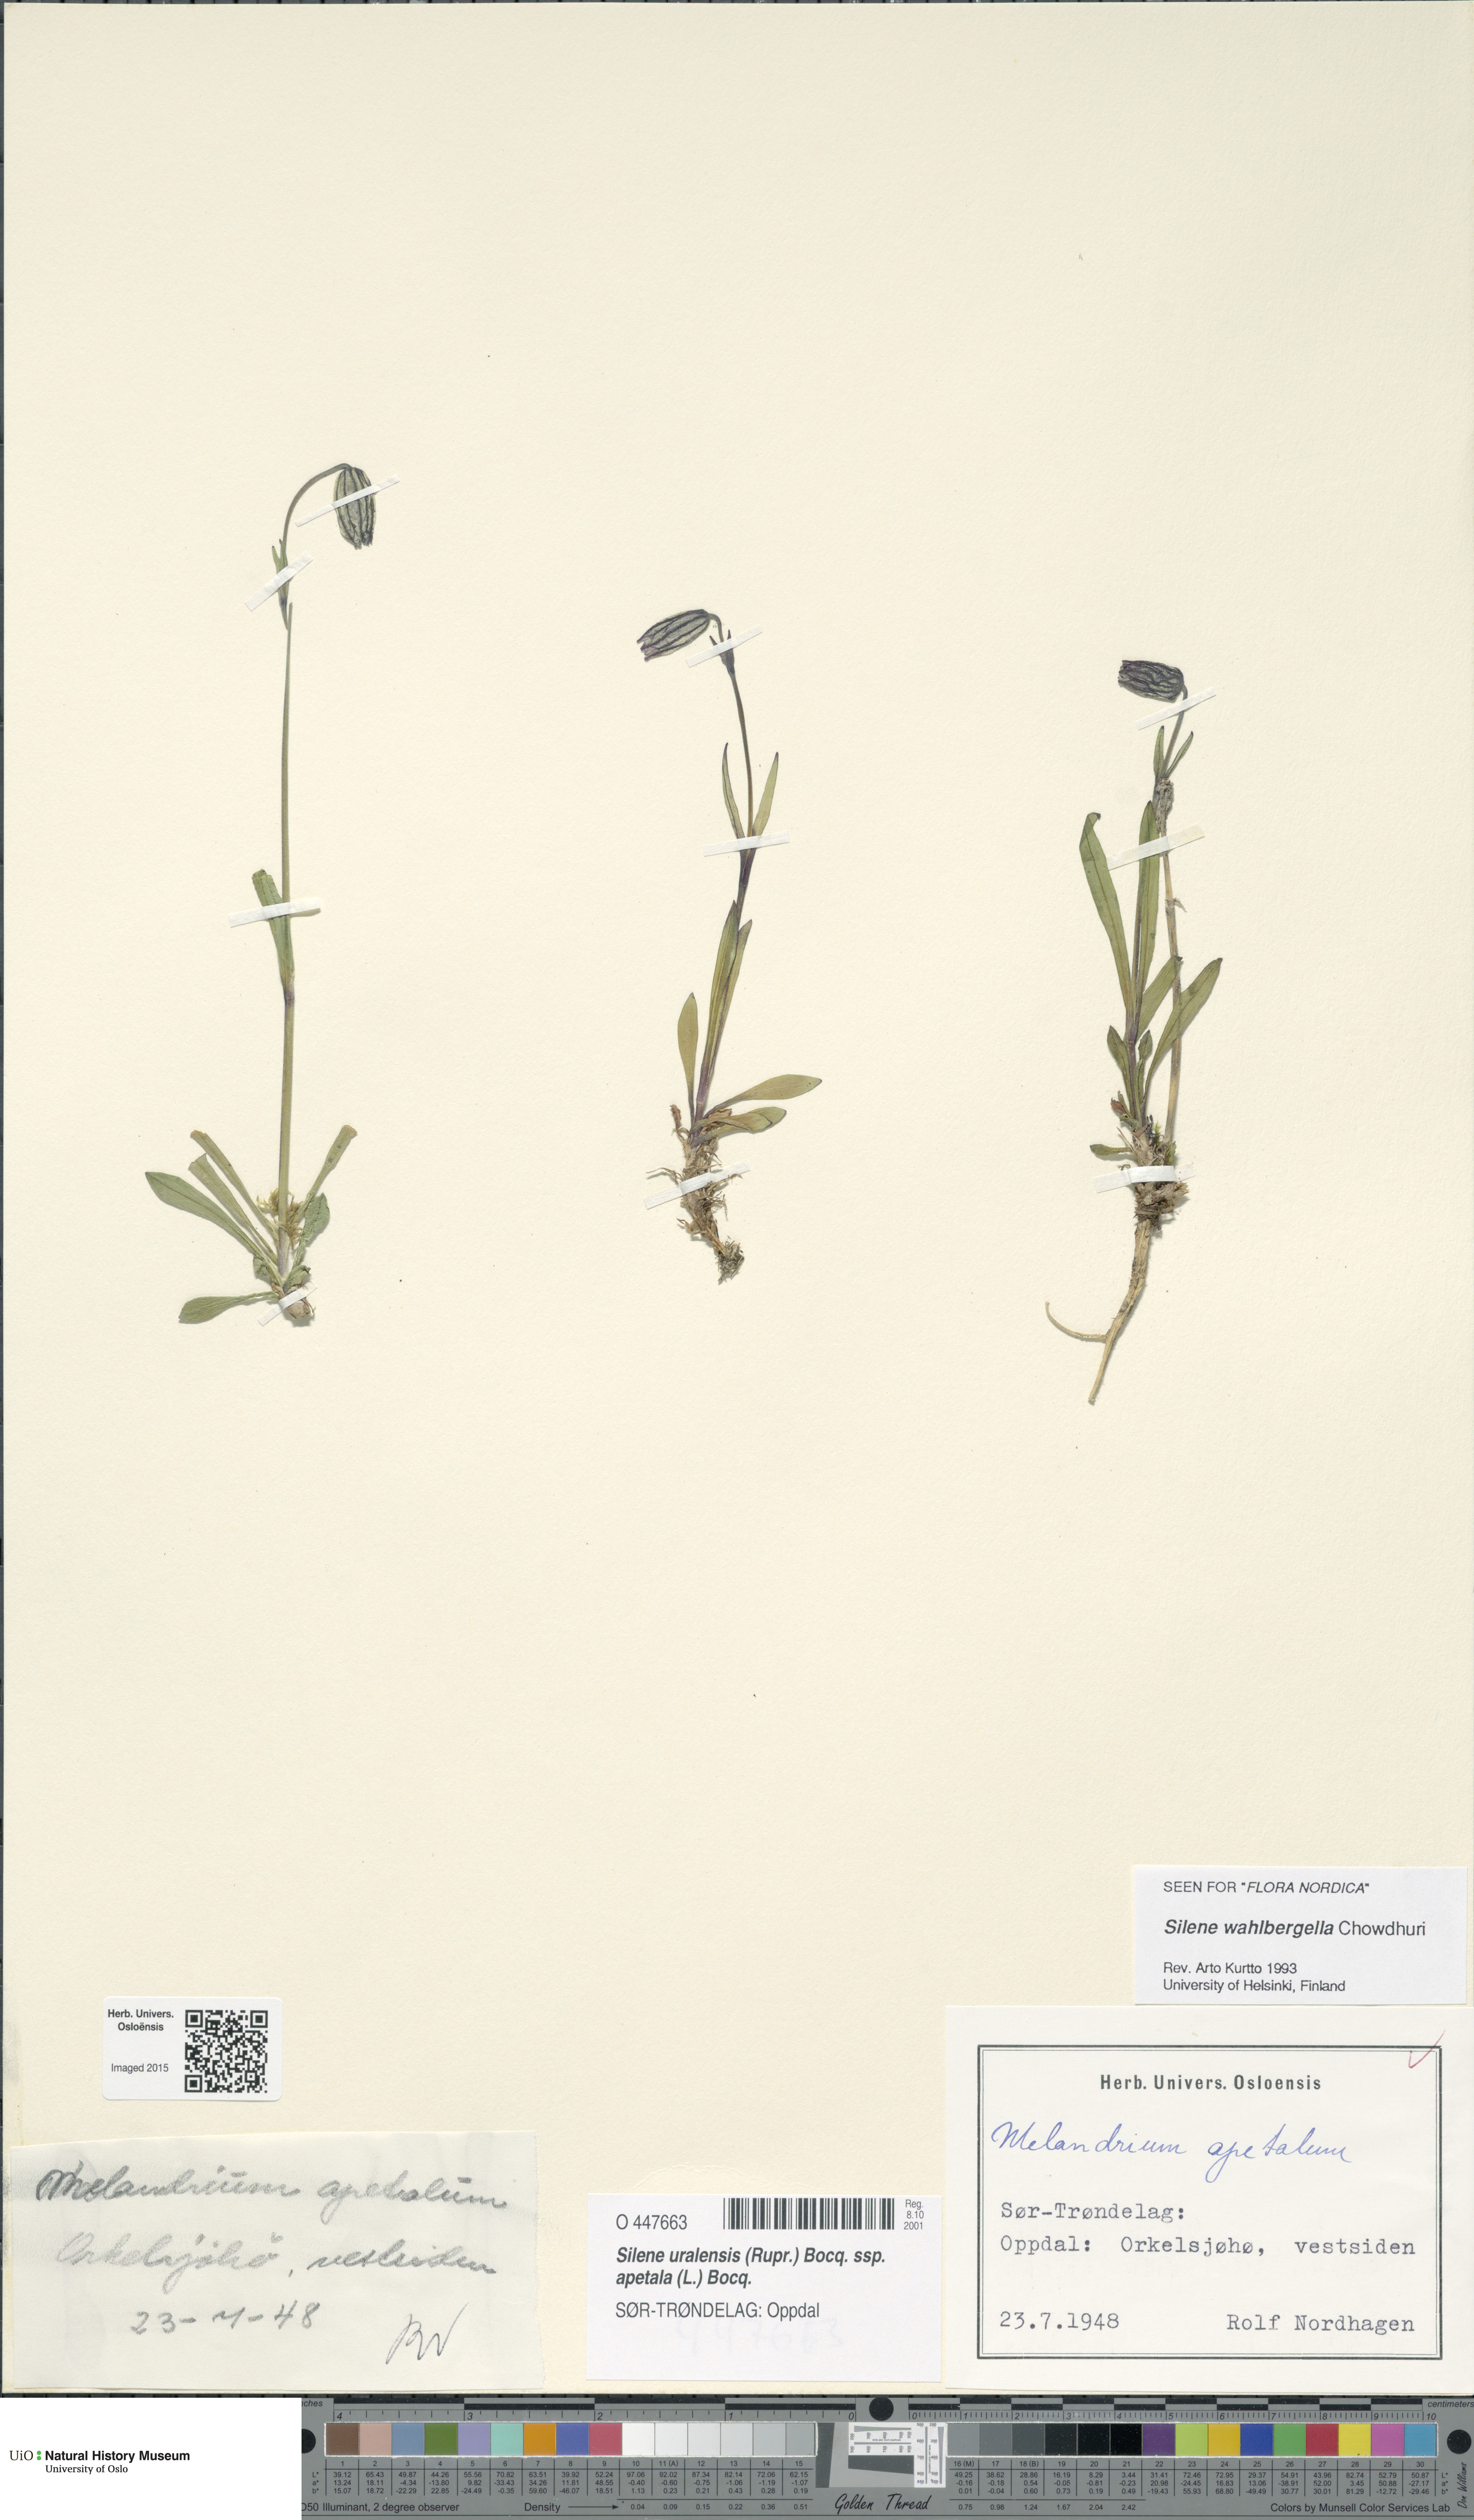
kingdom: Plantae
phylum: Tracheophyta
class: Magnoliopsida
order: Caryophyllales
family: Caryophyllaceae
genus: Silene
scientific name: Silene wahlbergella
